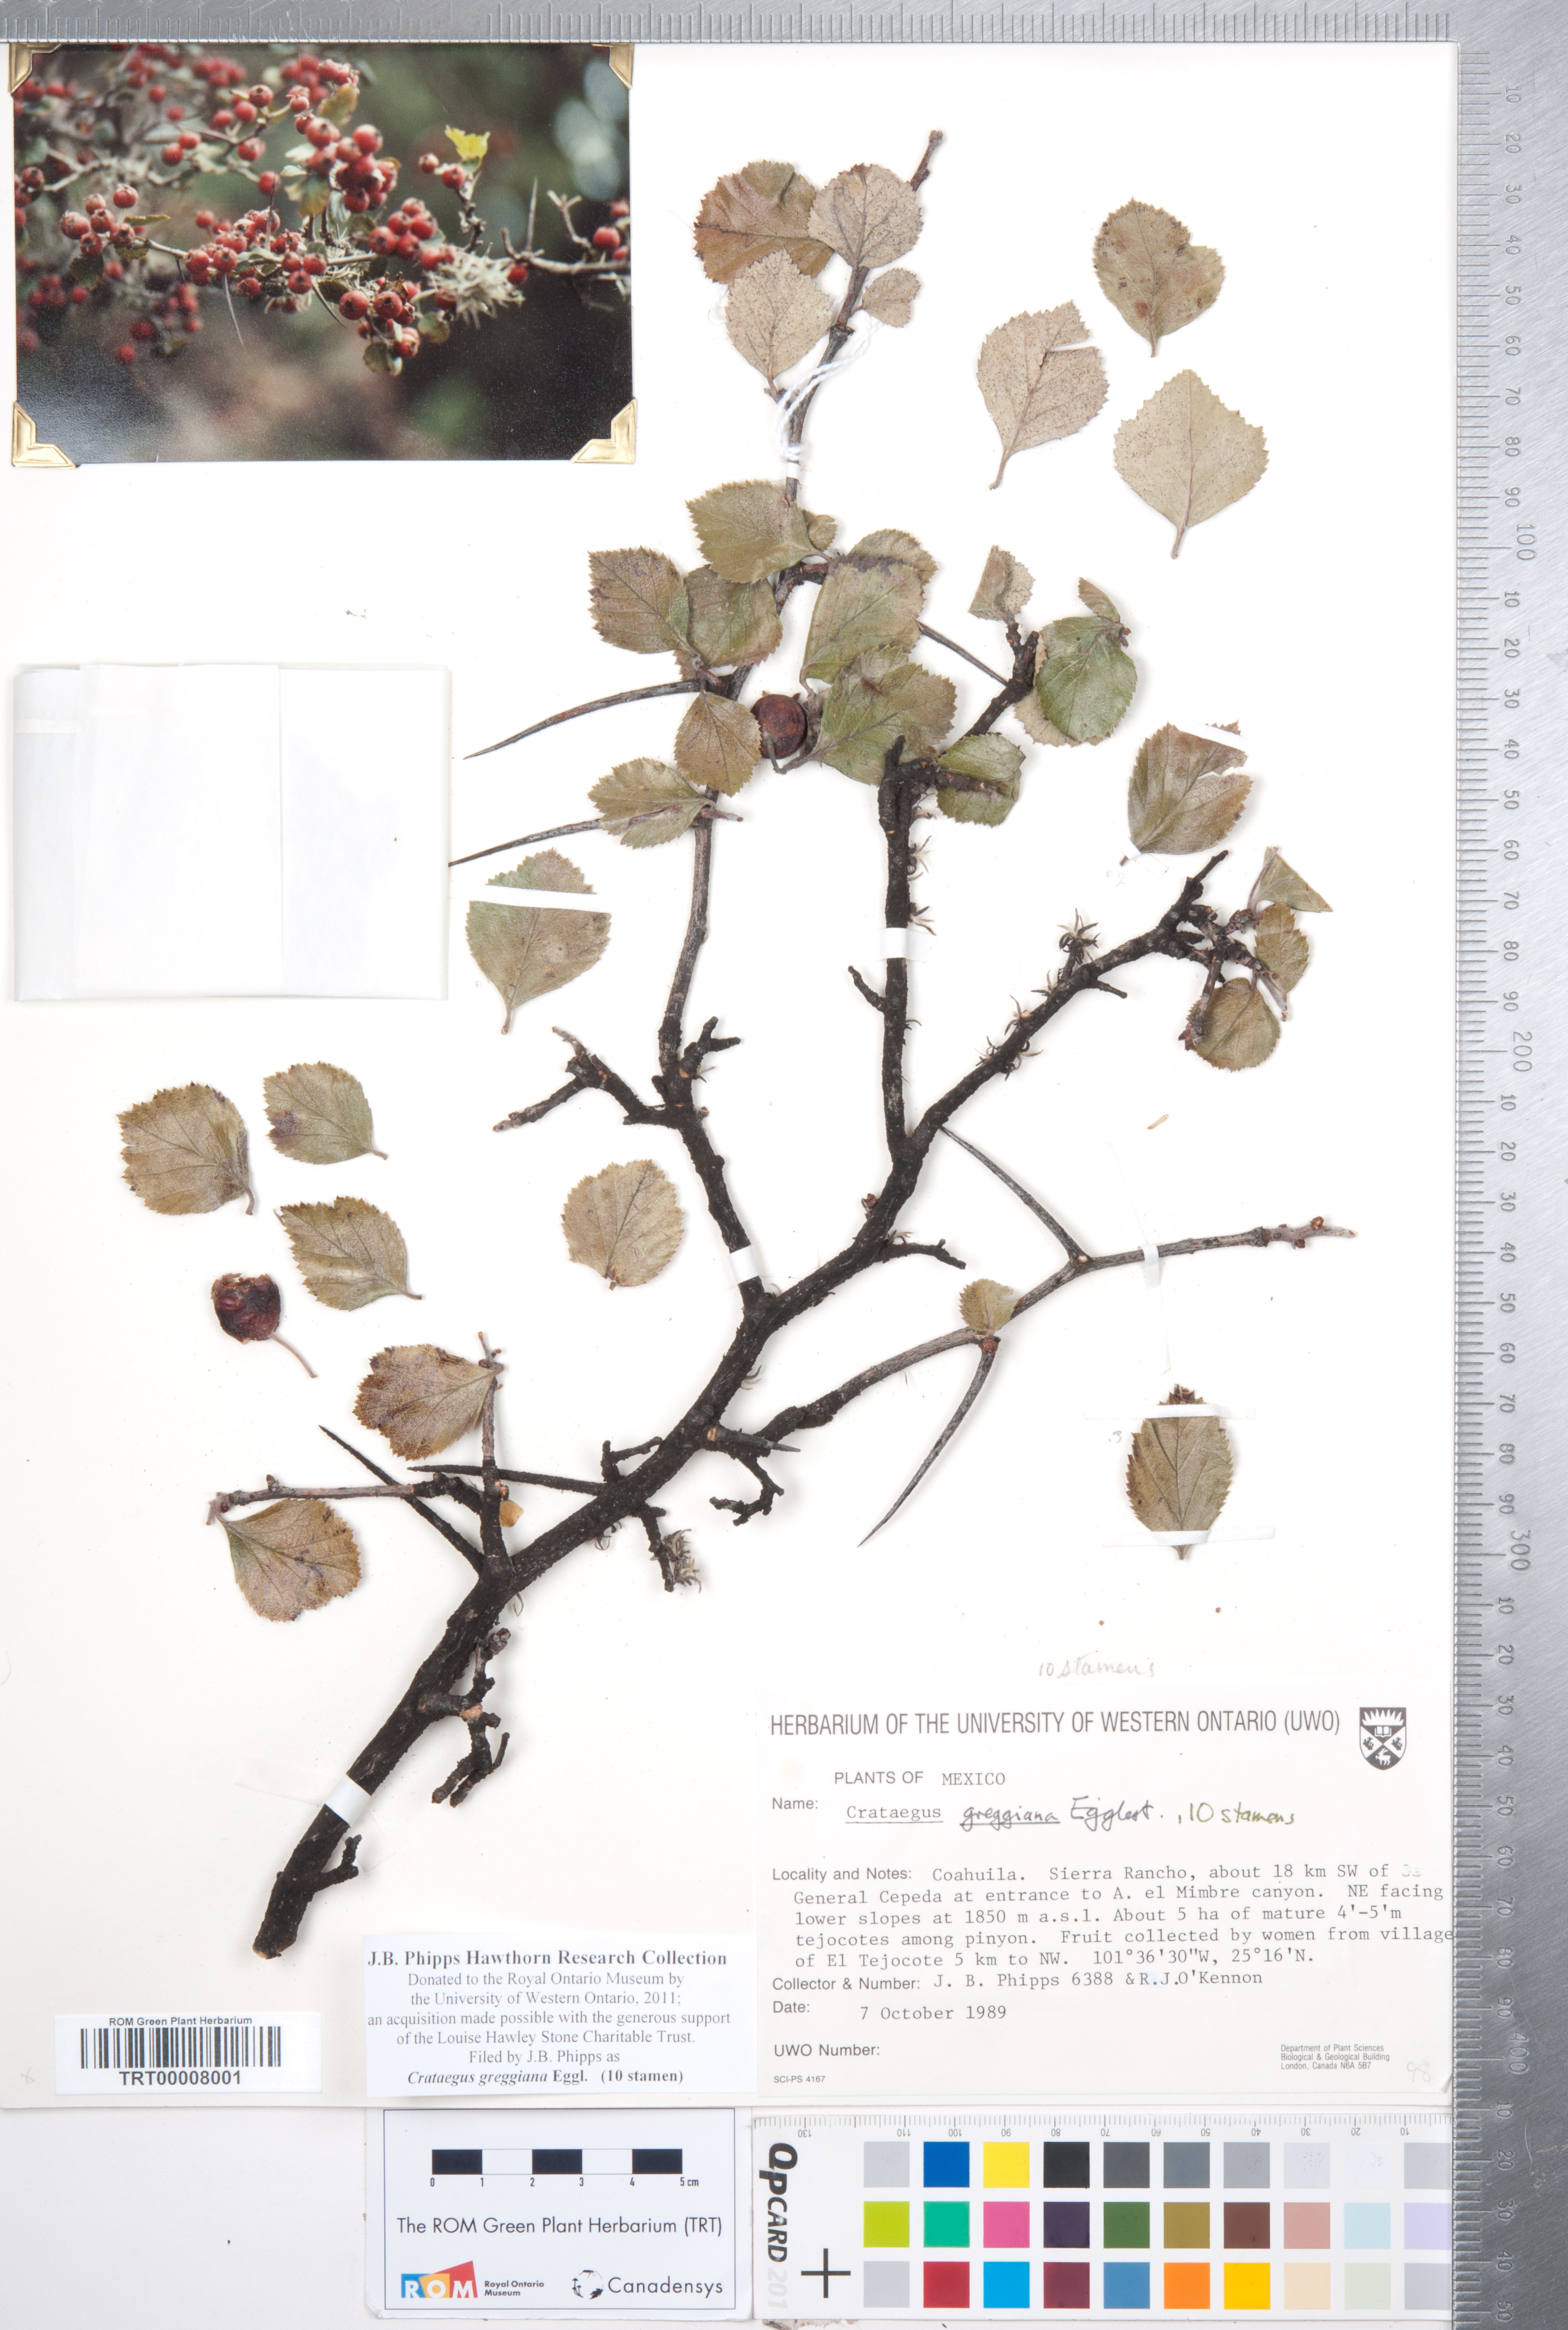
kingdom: Plantae
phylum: Tracheophyta
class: Magnoliopsida
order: Rosales
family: Rosaceae
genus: Crataegus
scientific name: Crataegus greggiana
